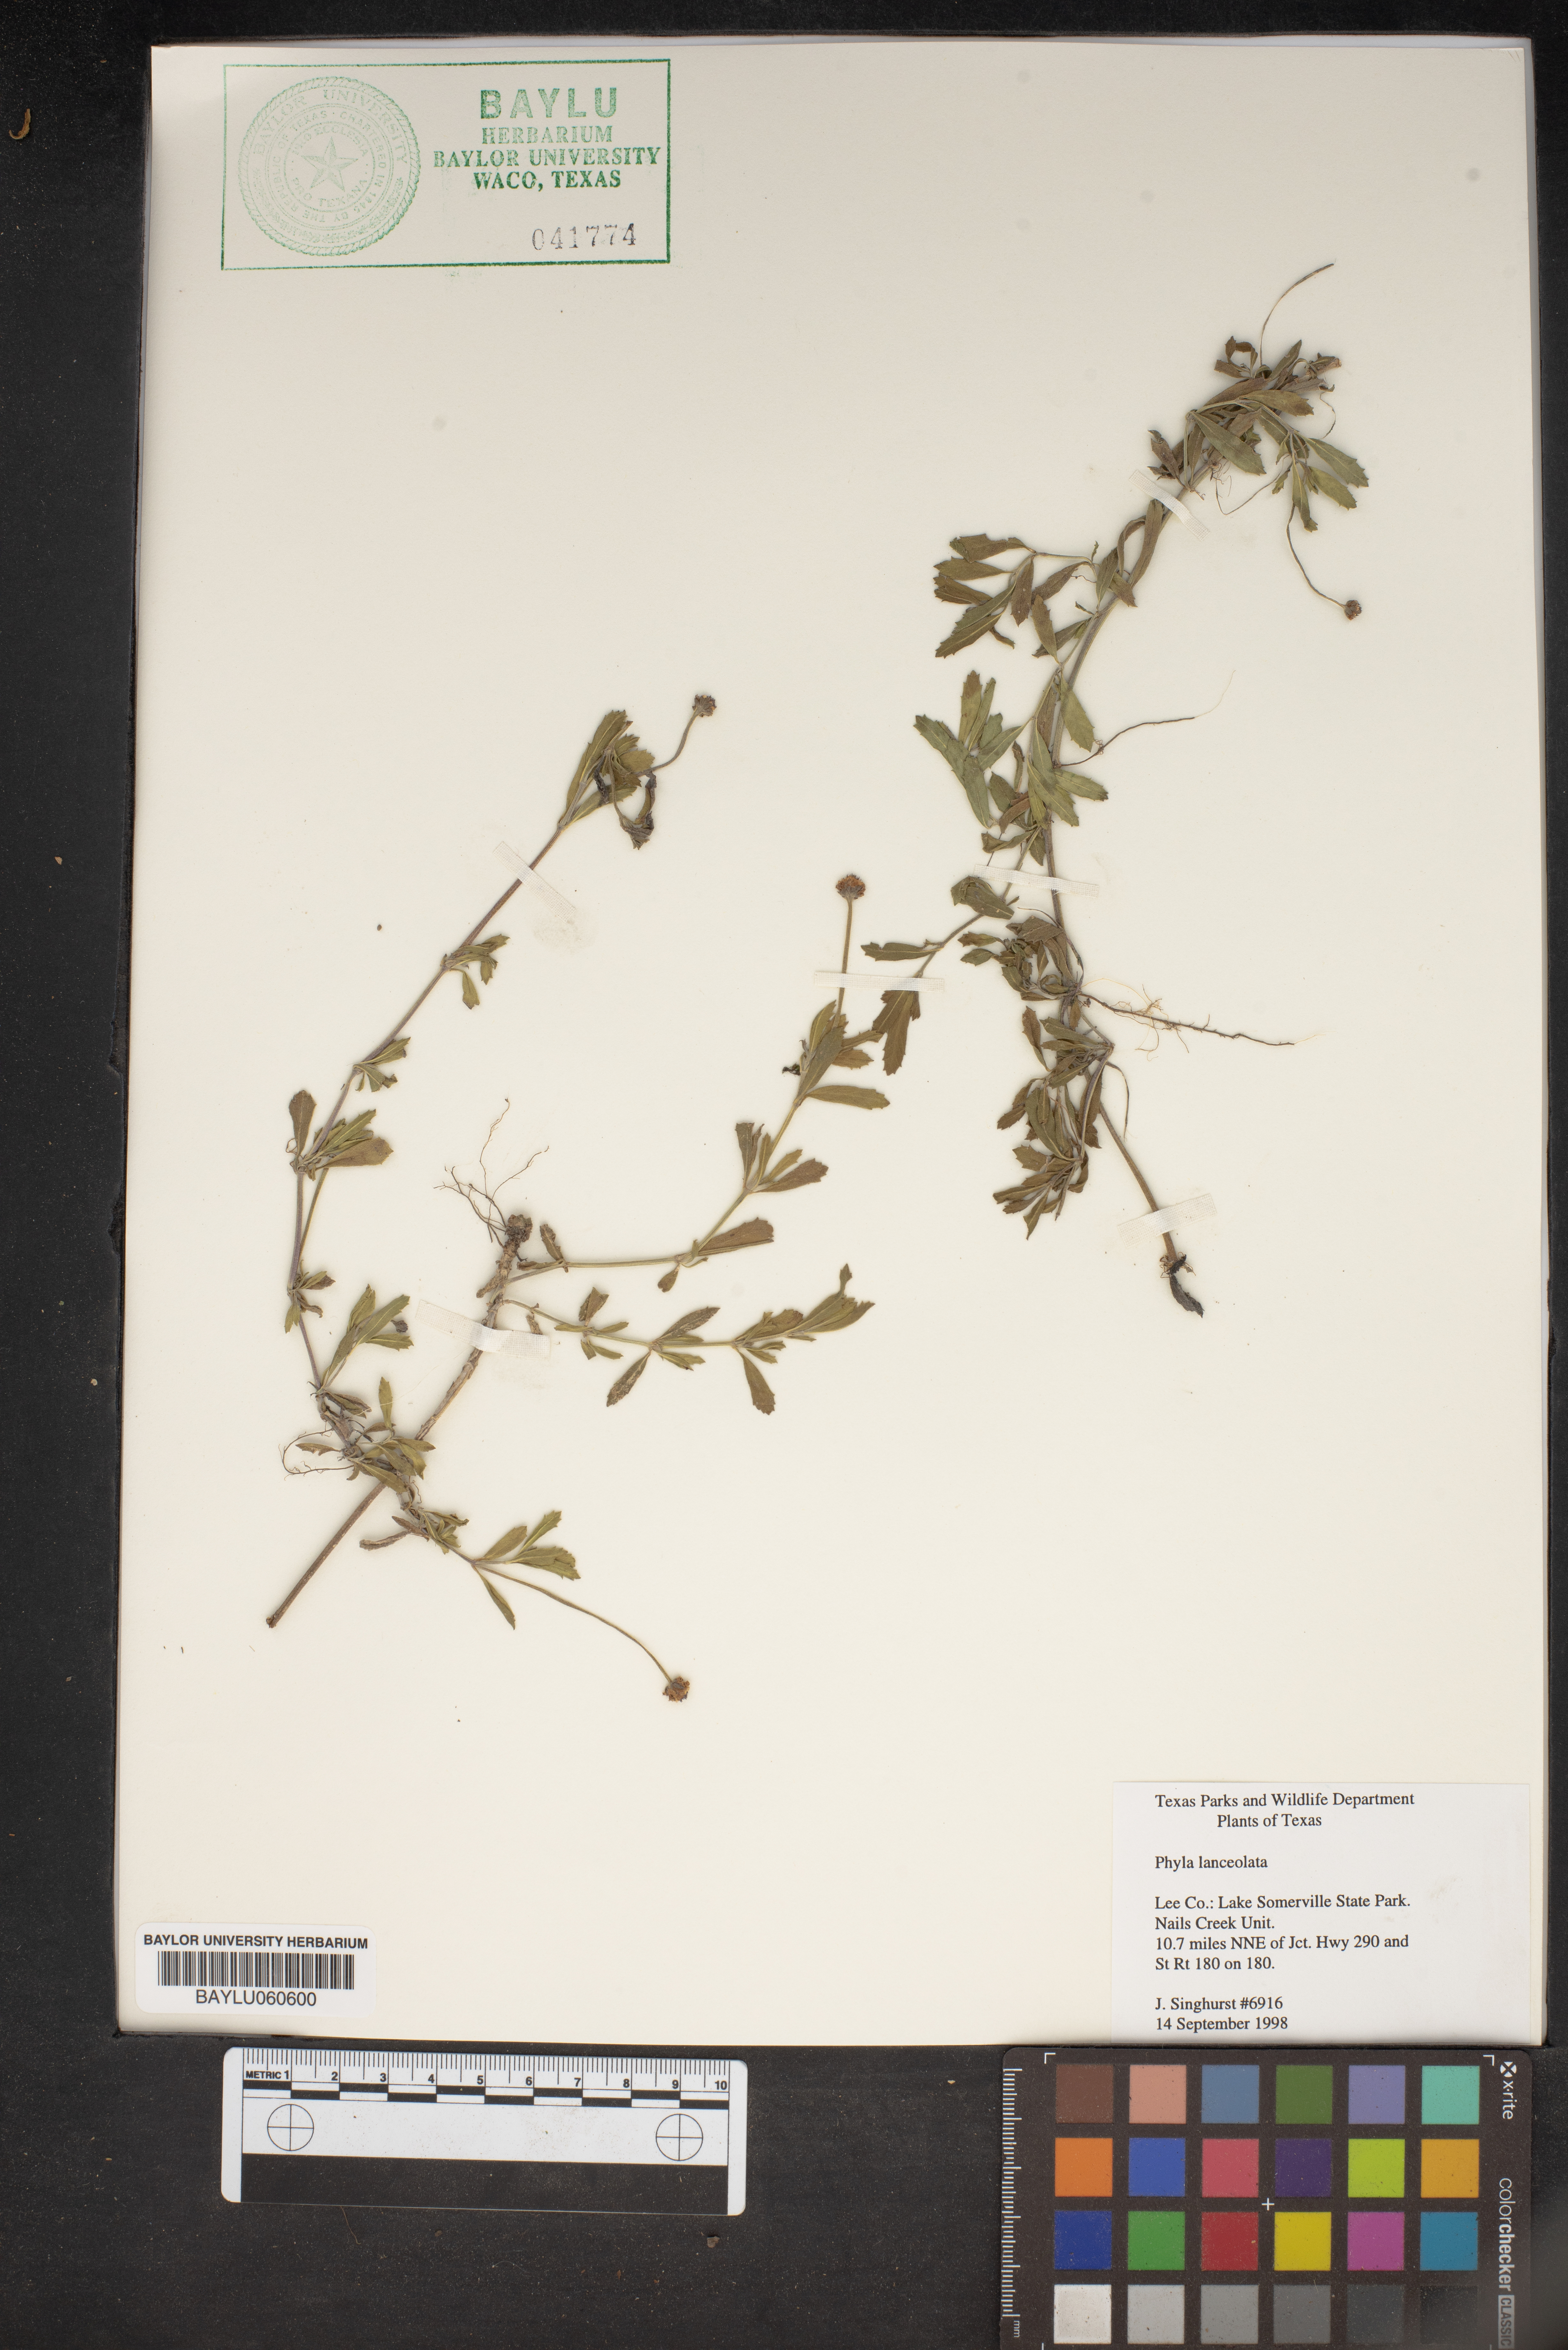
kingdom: Plantae
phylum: Tracheophyta
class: Magnoliopsida
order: Lamiales
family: Verbenaceae
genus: Phyla
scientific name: Phyla lanceolata
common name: Northern fogfruit
